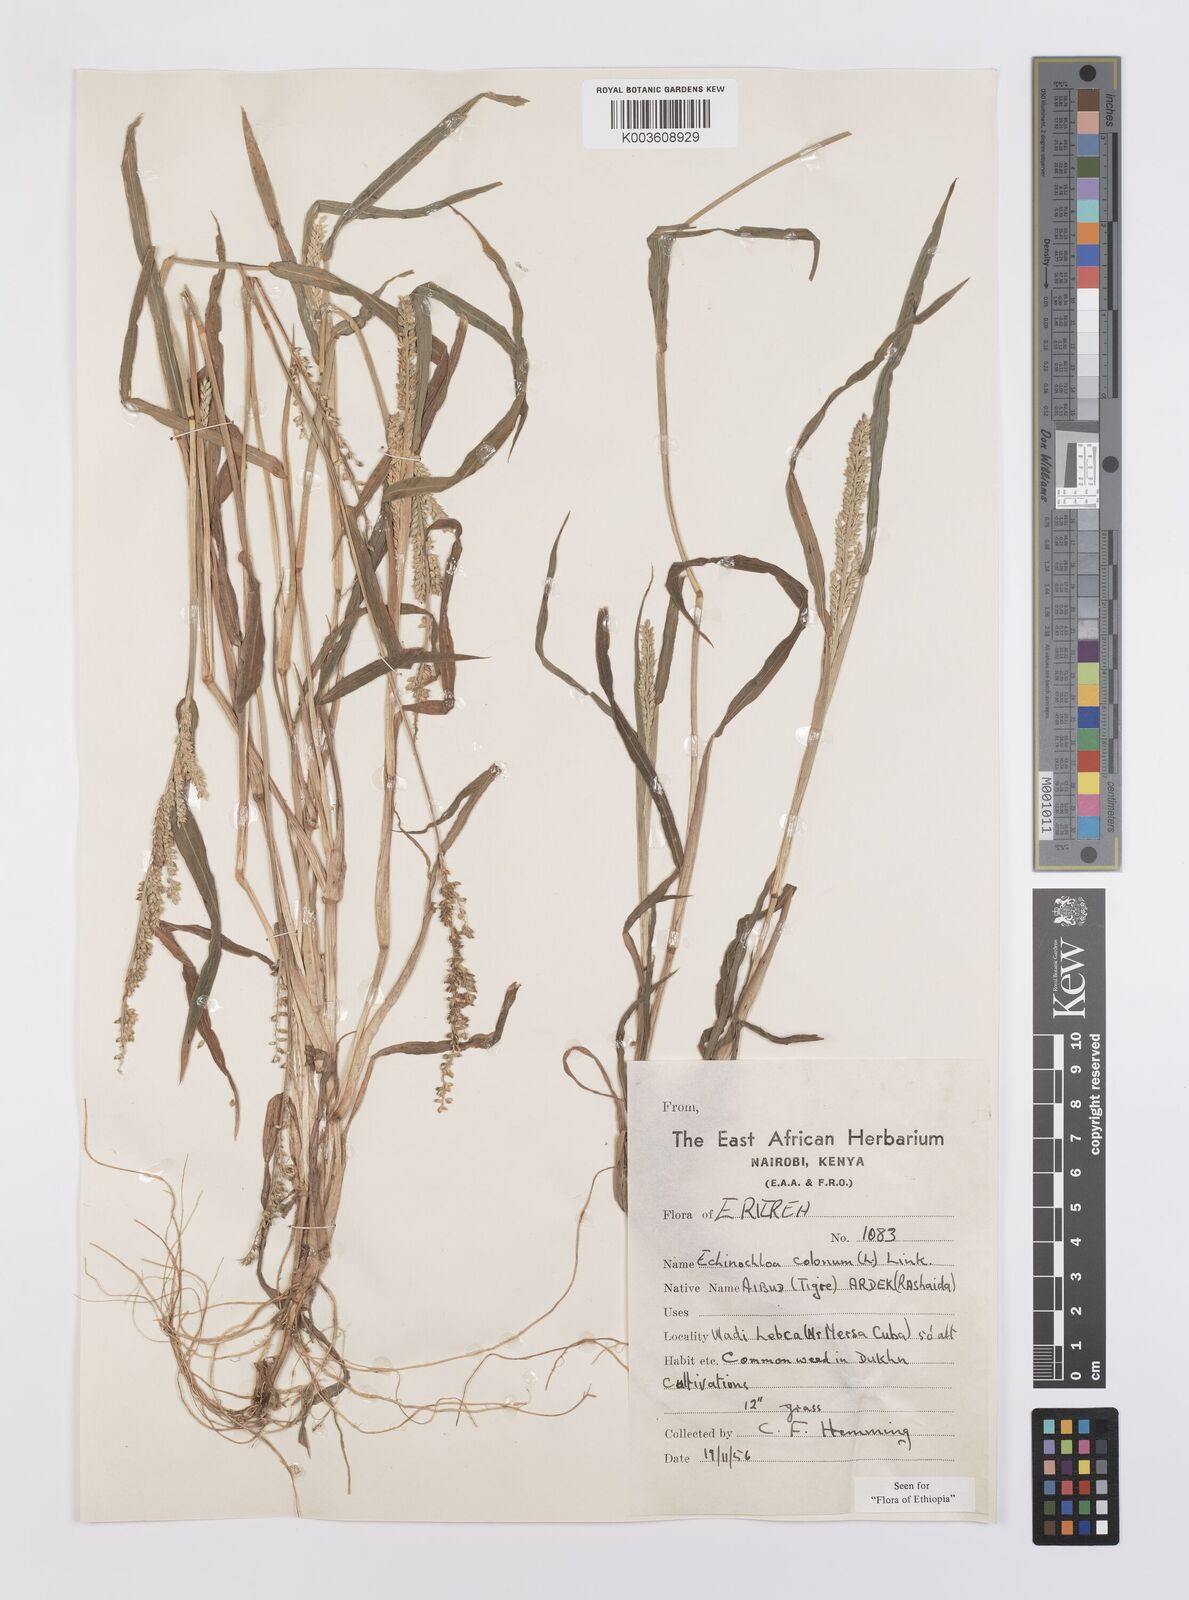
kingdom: Plantae
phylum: Tracheophyta
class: Liliopsida
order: Poales
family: Poaceae
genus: Echinochloa
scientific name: Echinochloa colonum
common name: Jungle rice
